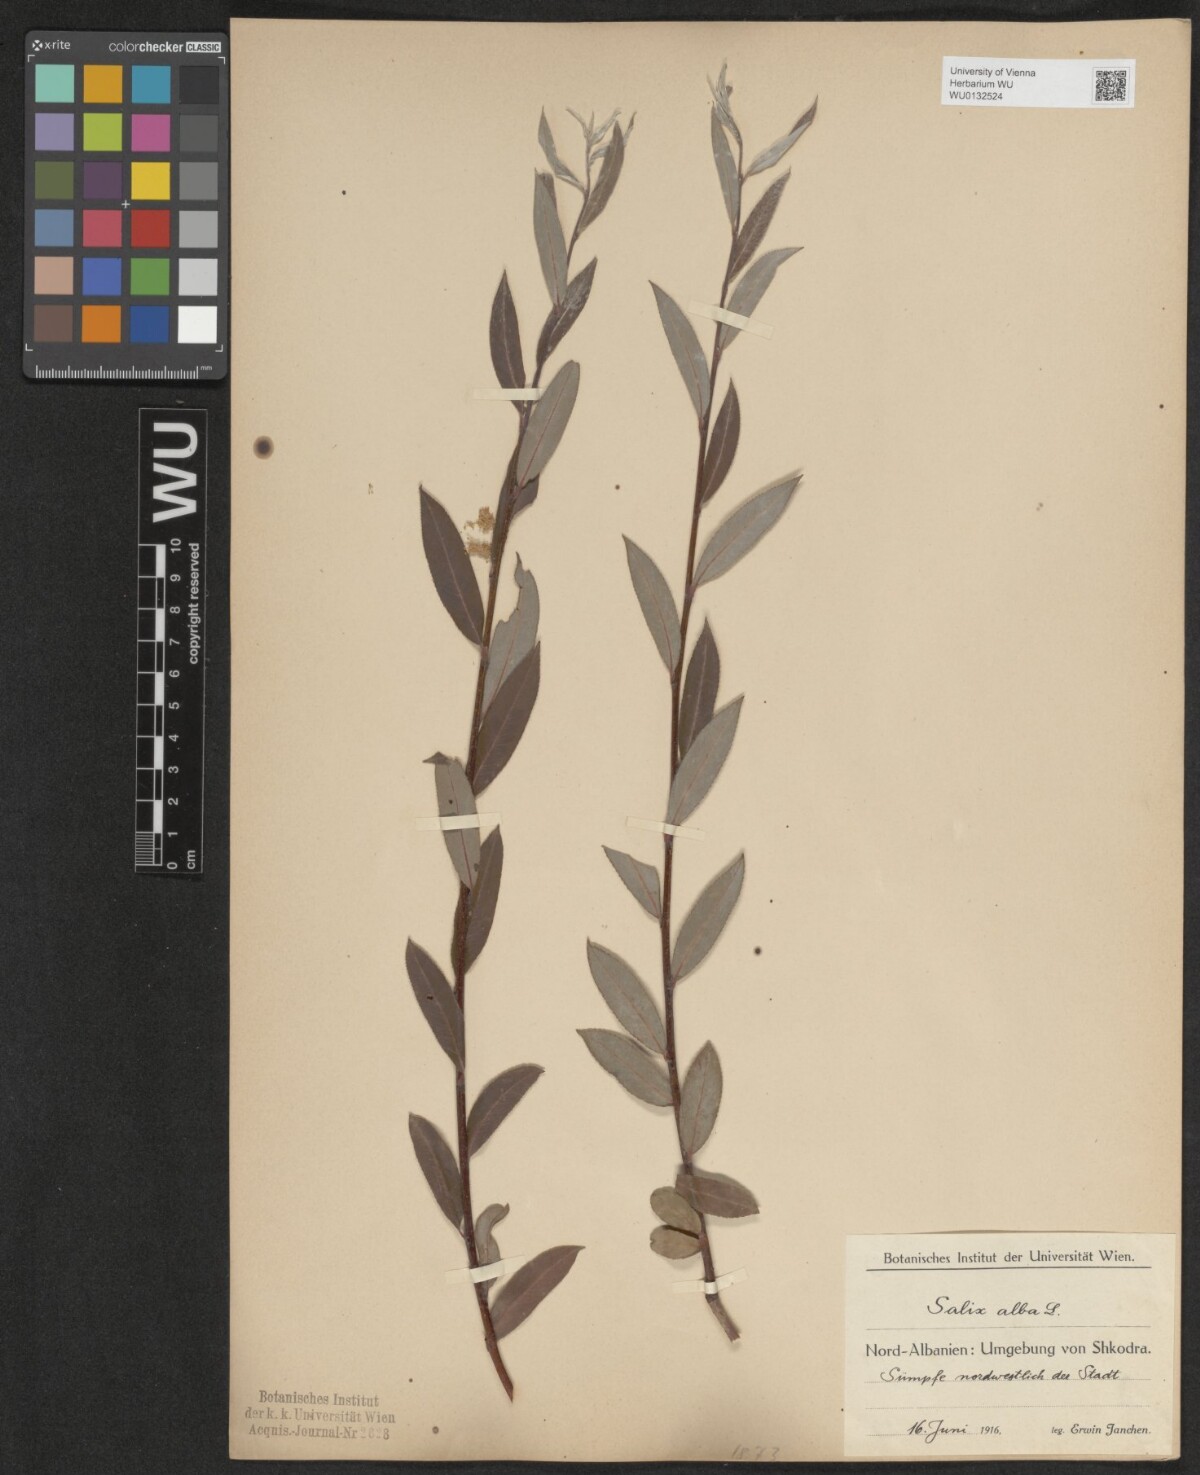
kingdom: Plantae
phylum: Tracheophyta
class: Magnoliopsida
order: Malpighiales
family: Salicaceae
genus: Salix
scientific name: Salix alba
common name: White willow
